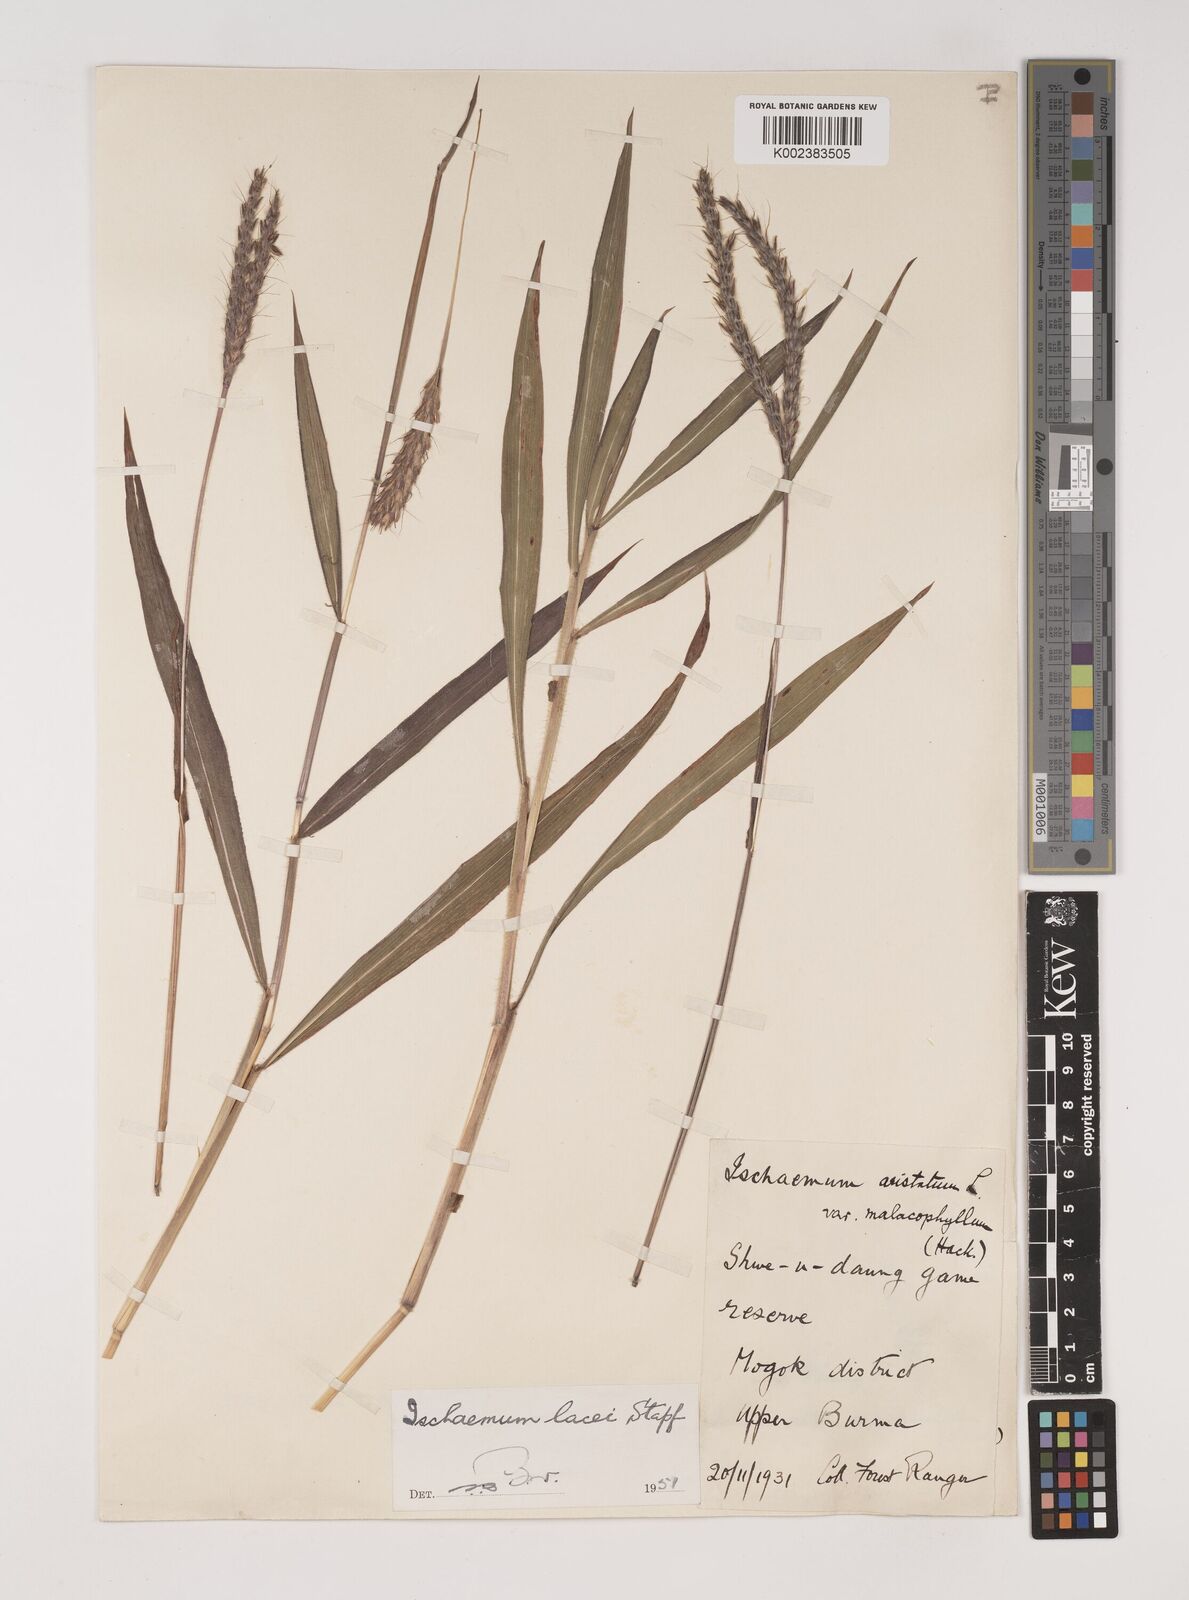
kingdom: Plantae
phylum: Tracheophyta
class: Liliopsida
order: Poales
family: Poaceae
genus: Ischaemum
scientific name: Ischaemum
